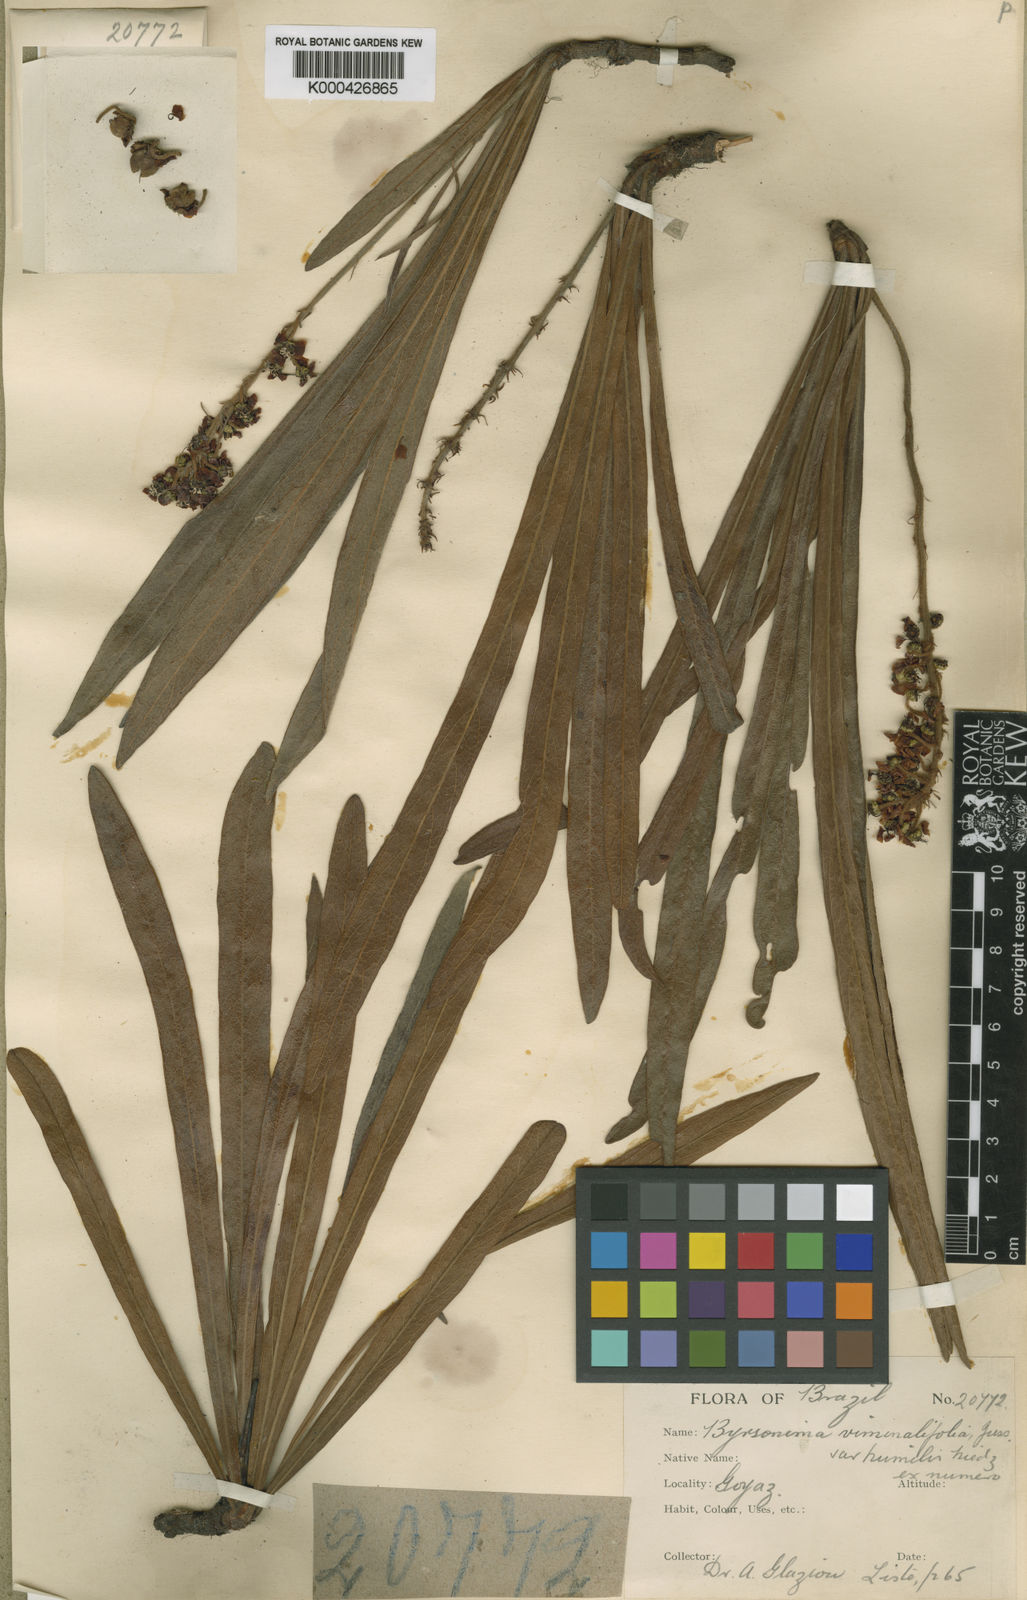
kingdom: Plantae
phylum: Tracheophyta
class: Magnoliopsida
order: Malpighiales
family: Malpighiaceae
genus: Byrsonima
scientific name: Byrsonima viminifolia
